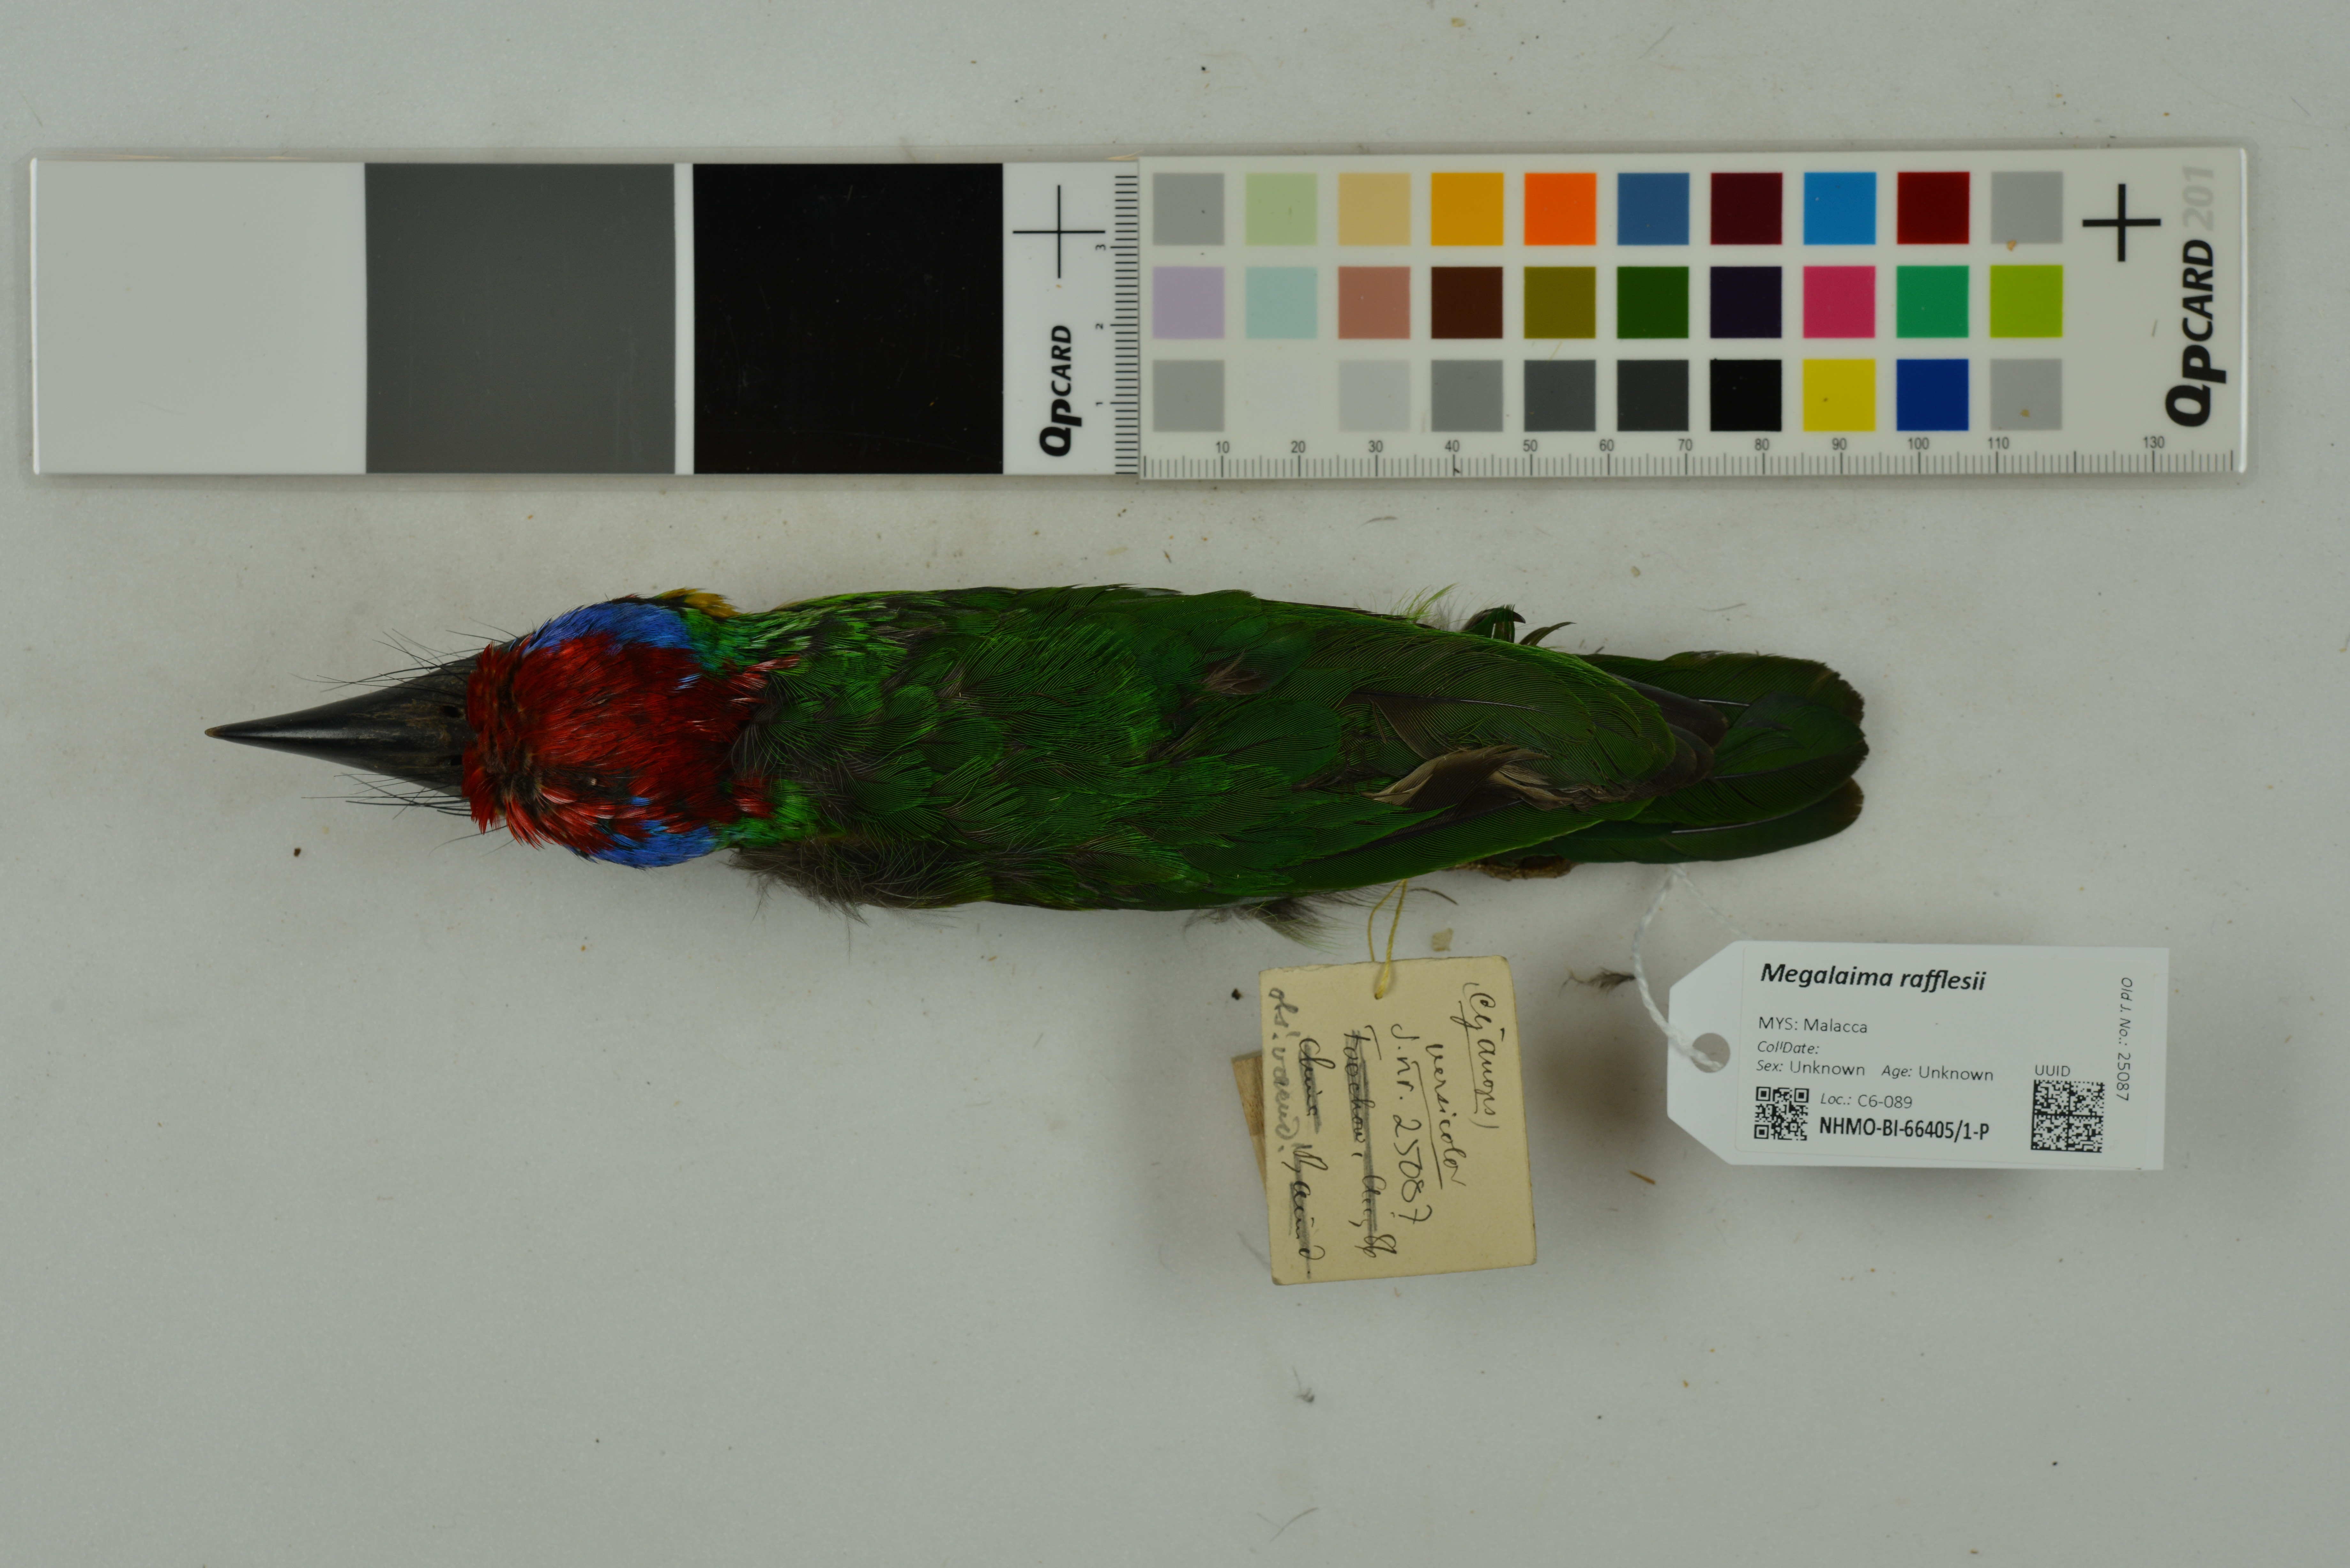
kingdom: Animalia
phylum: Chordata
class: Aves
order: Piciformes
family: Megalaimidae
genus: Psilopogon
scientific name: Psilopogon rafflesii
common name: Red-crowned barbet
